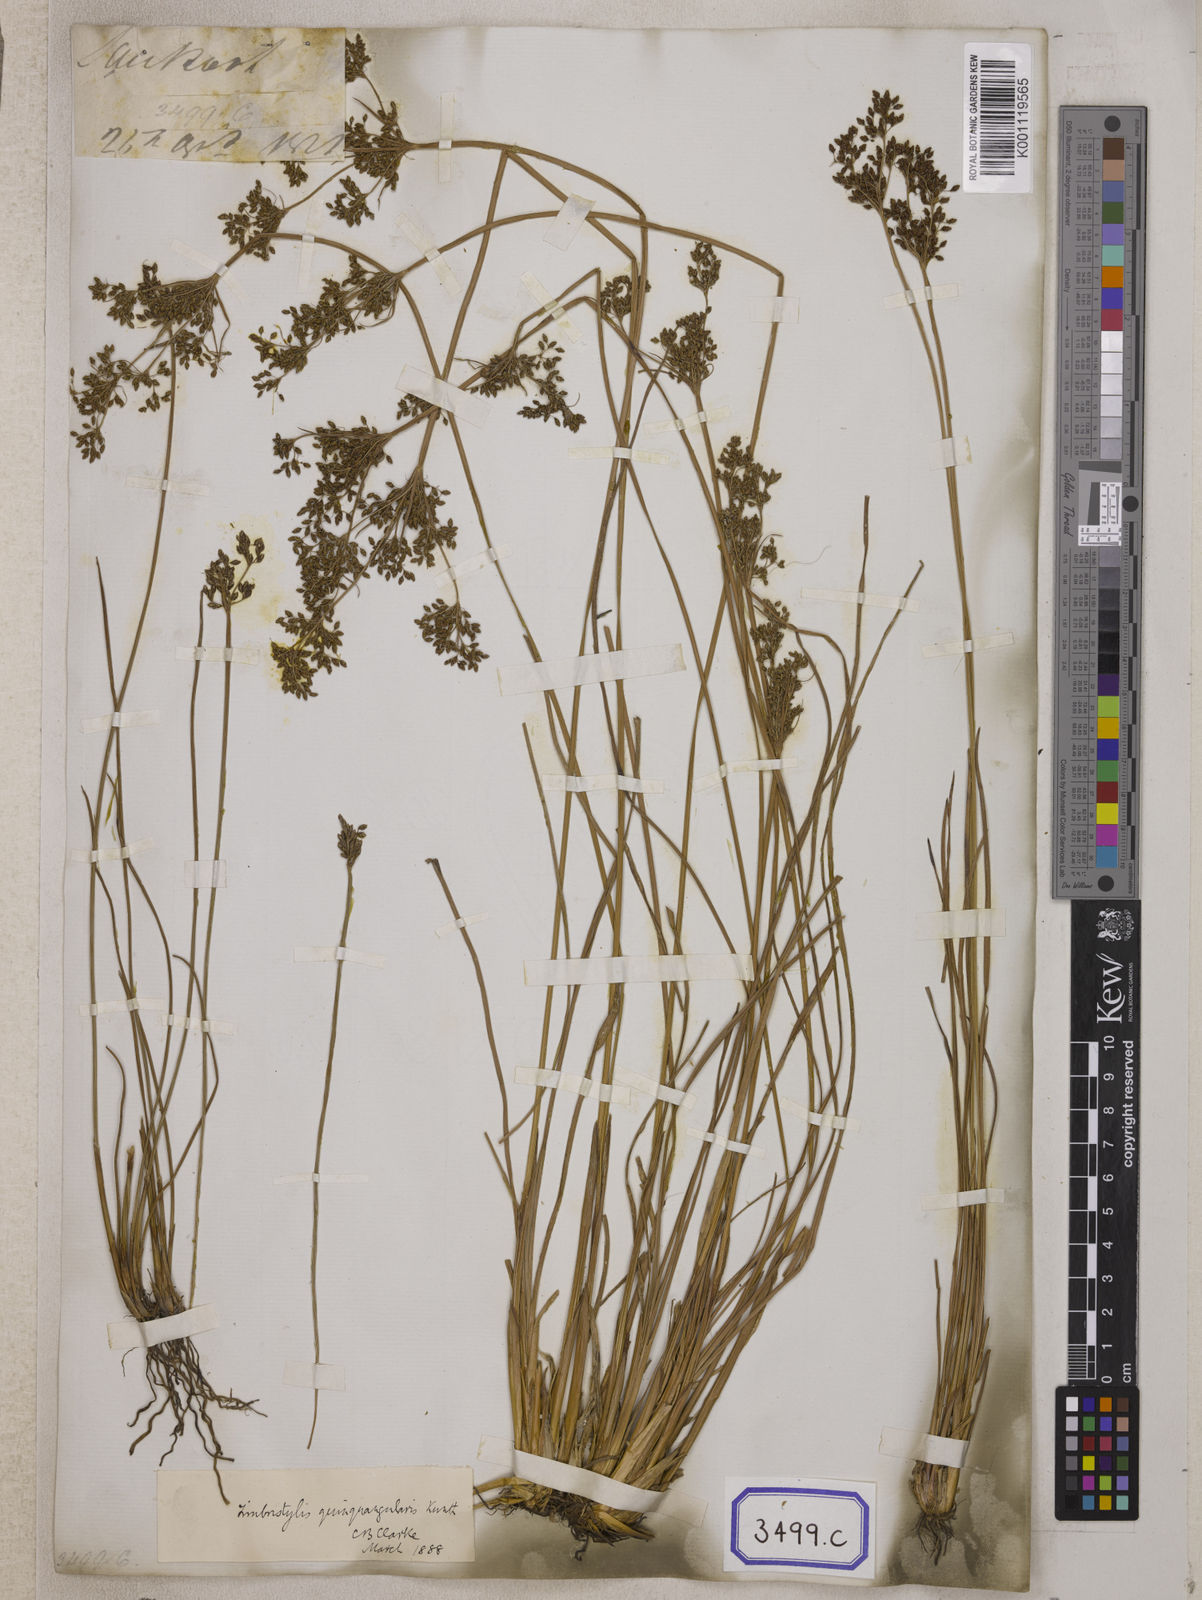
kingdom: Plantae
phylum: Tracheophyta
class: Liliopsida
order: Poales
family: Cyperaceae
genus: Fimbristylis
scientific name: Fimbristylis
